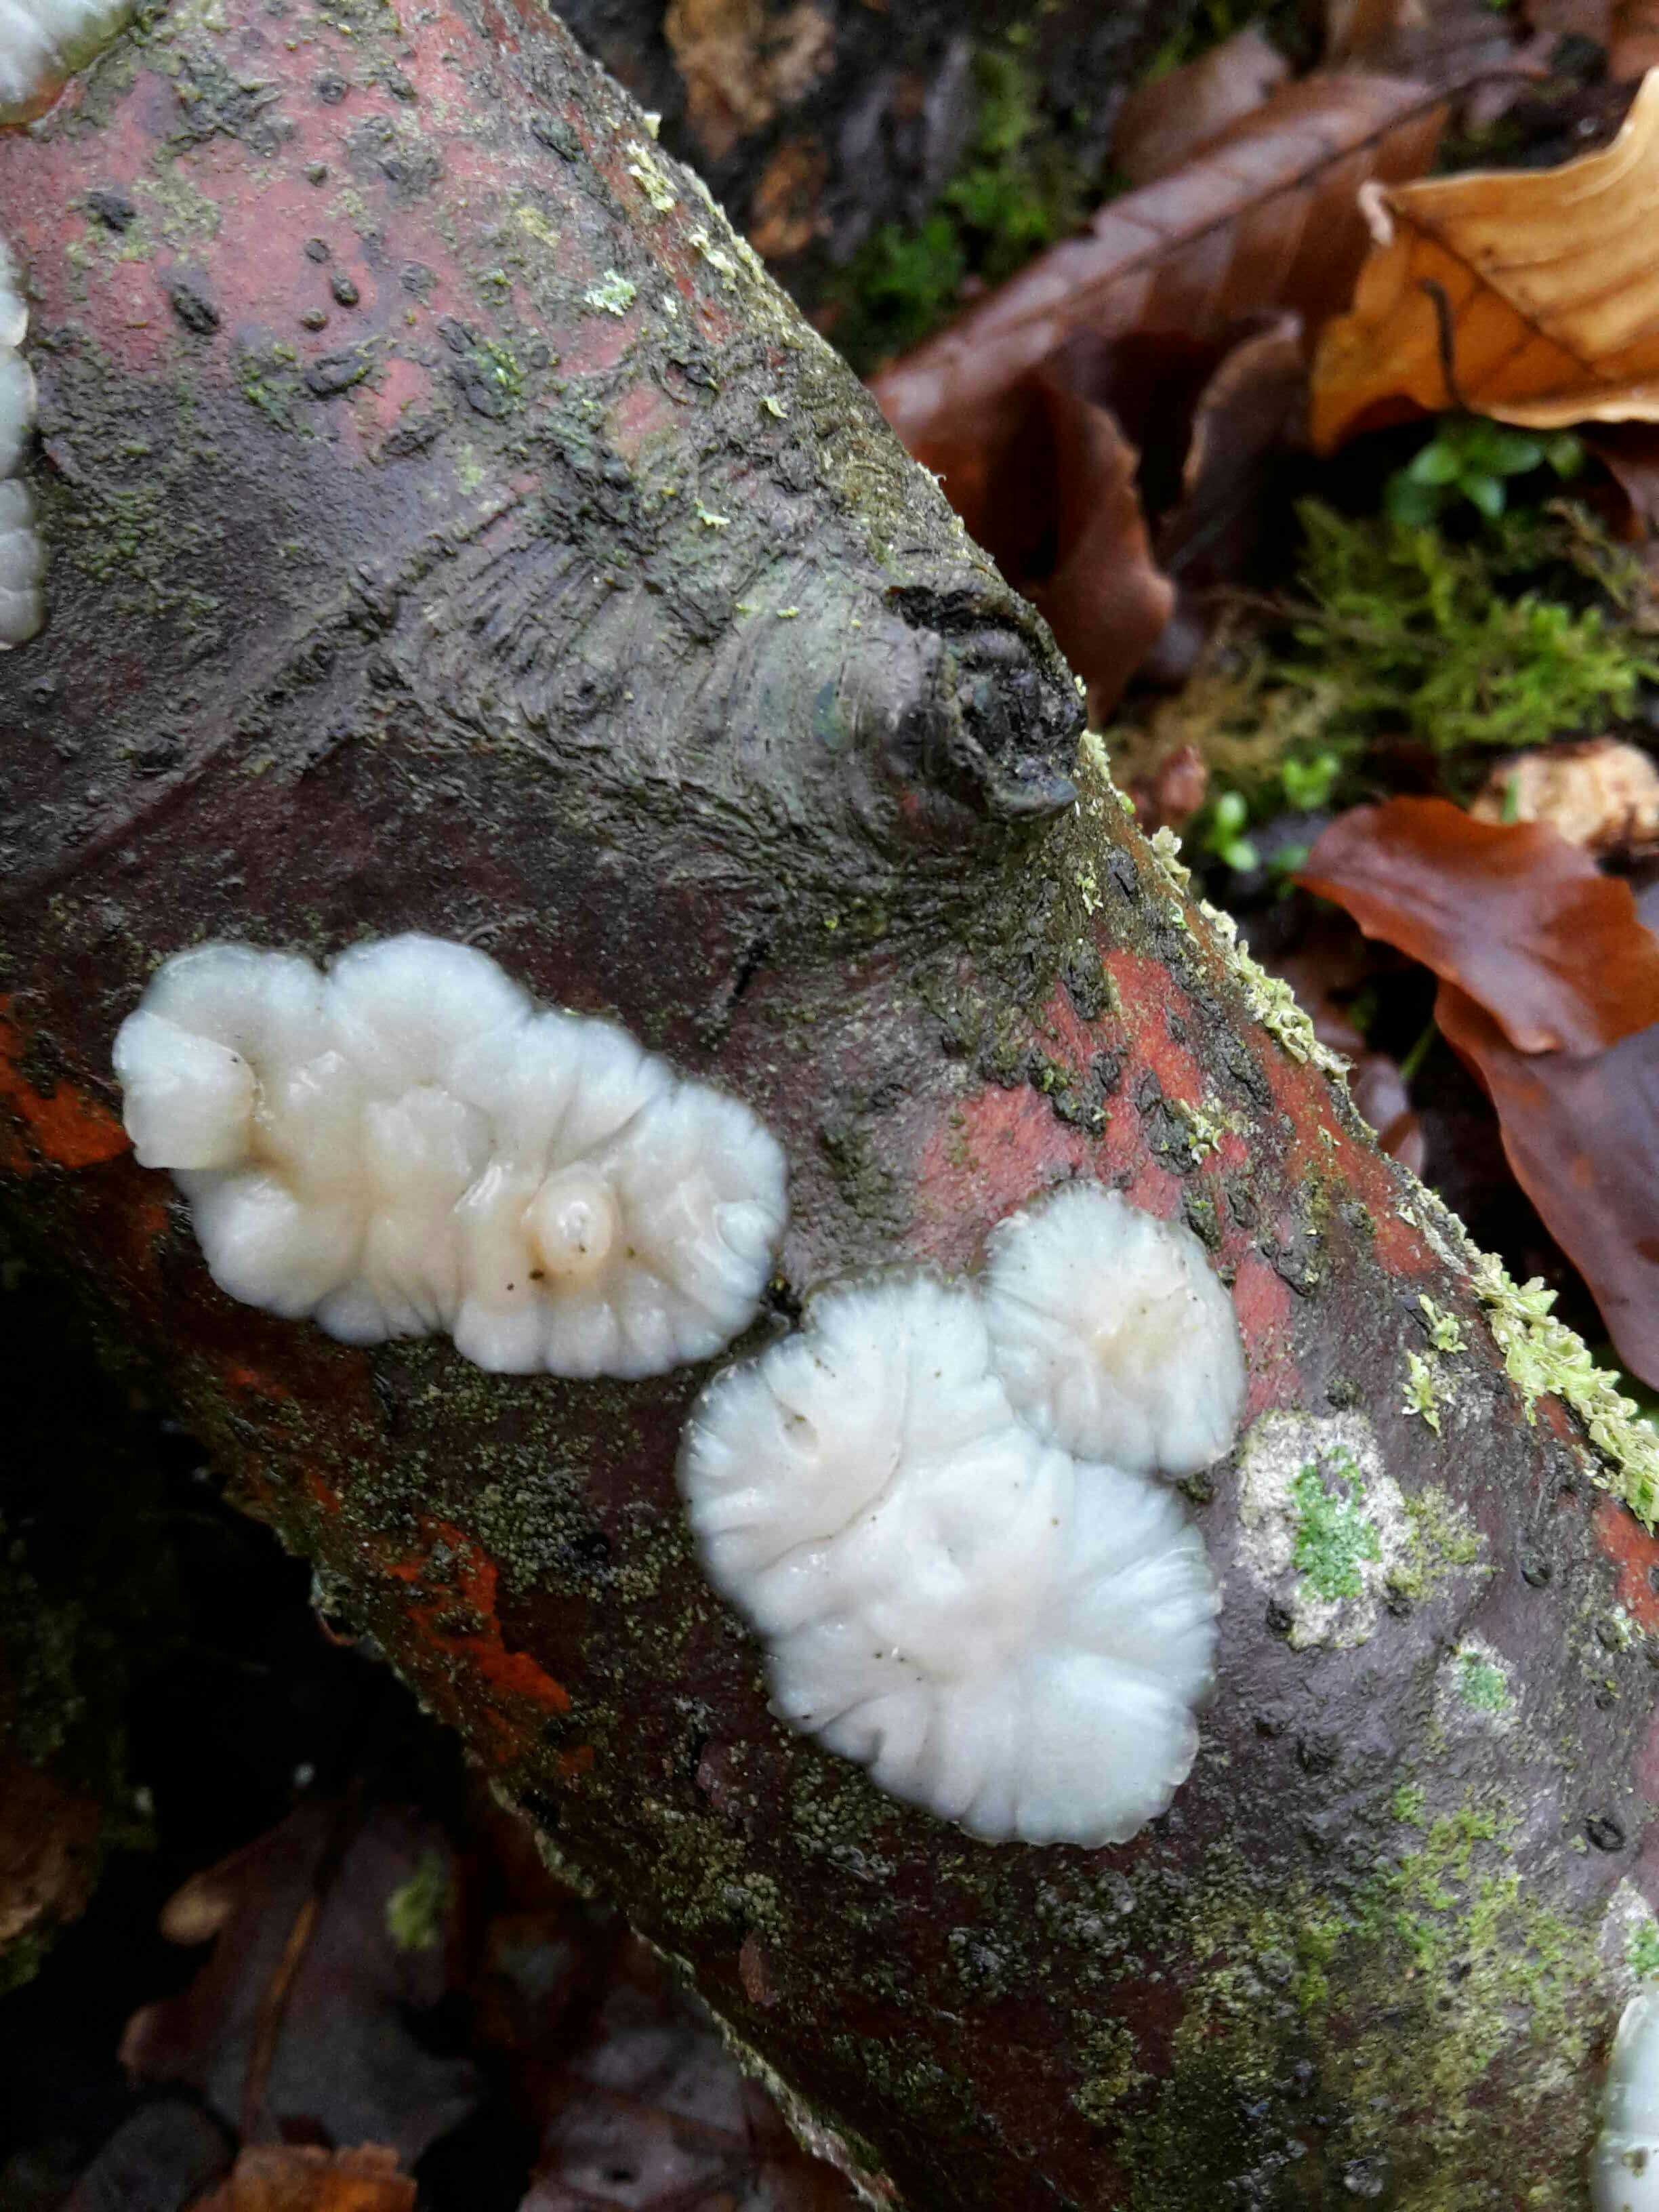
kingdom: Fungi
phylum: Basidiomycota
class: Agaricomycetes
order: Auriculariales
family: Auriculariaceae
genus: Exidia
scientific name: Exidia thuretiana
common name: hvidlig bævretop
